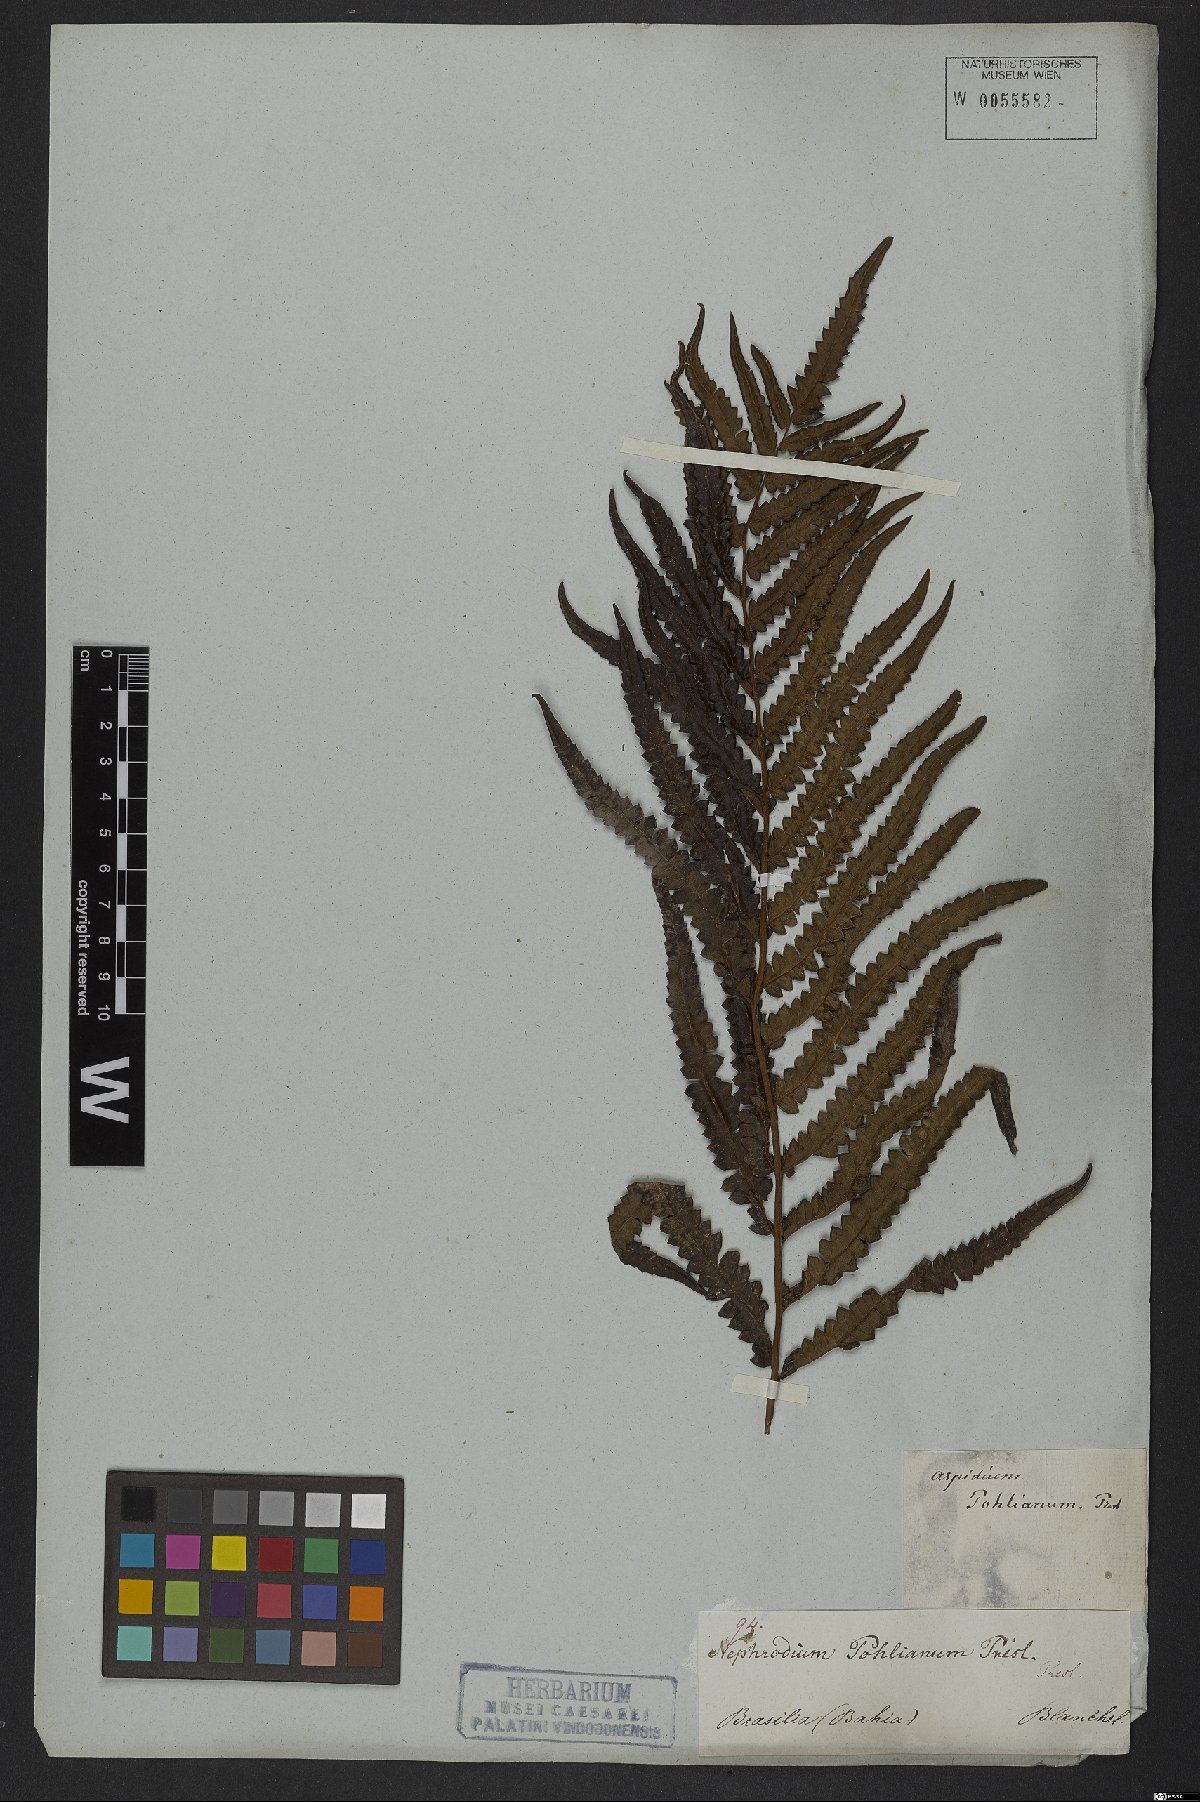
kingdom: Plantae
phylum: Tracheophyta
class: Polypodiopsida
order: Polypodiales
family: Thelypteridaceae
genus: Cyclosorus
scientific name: Cyclosorus interruptus
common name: Neke fern
